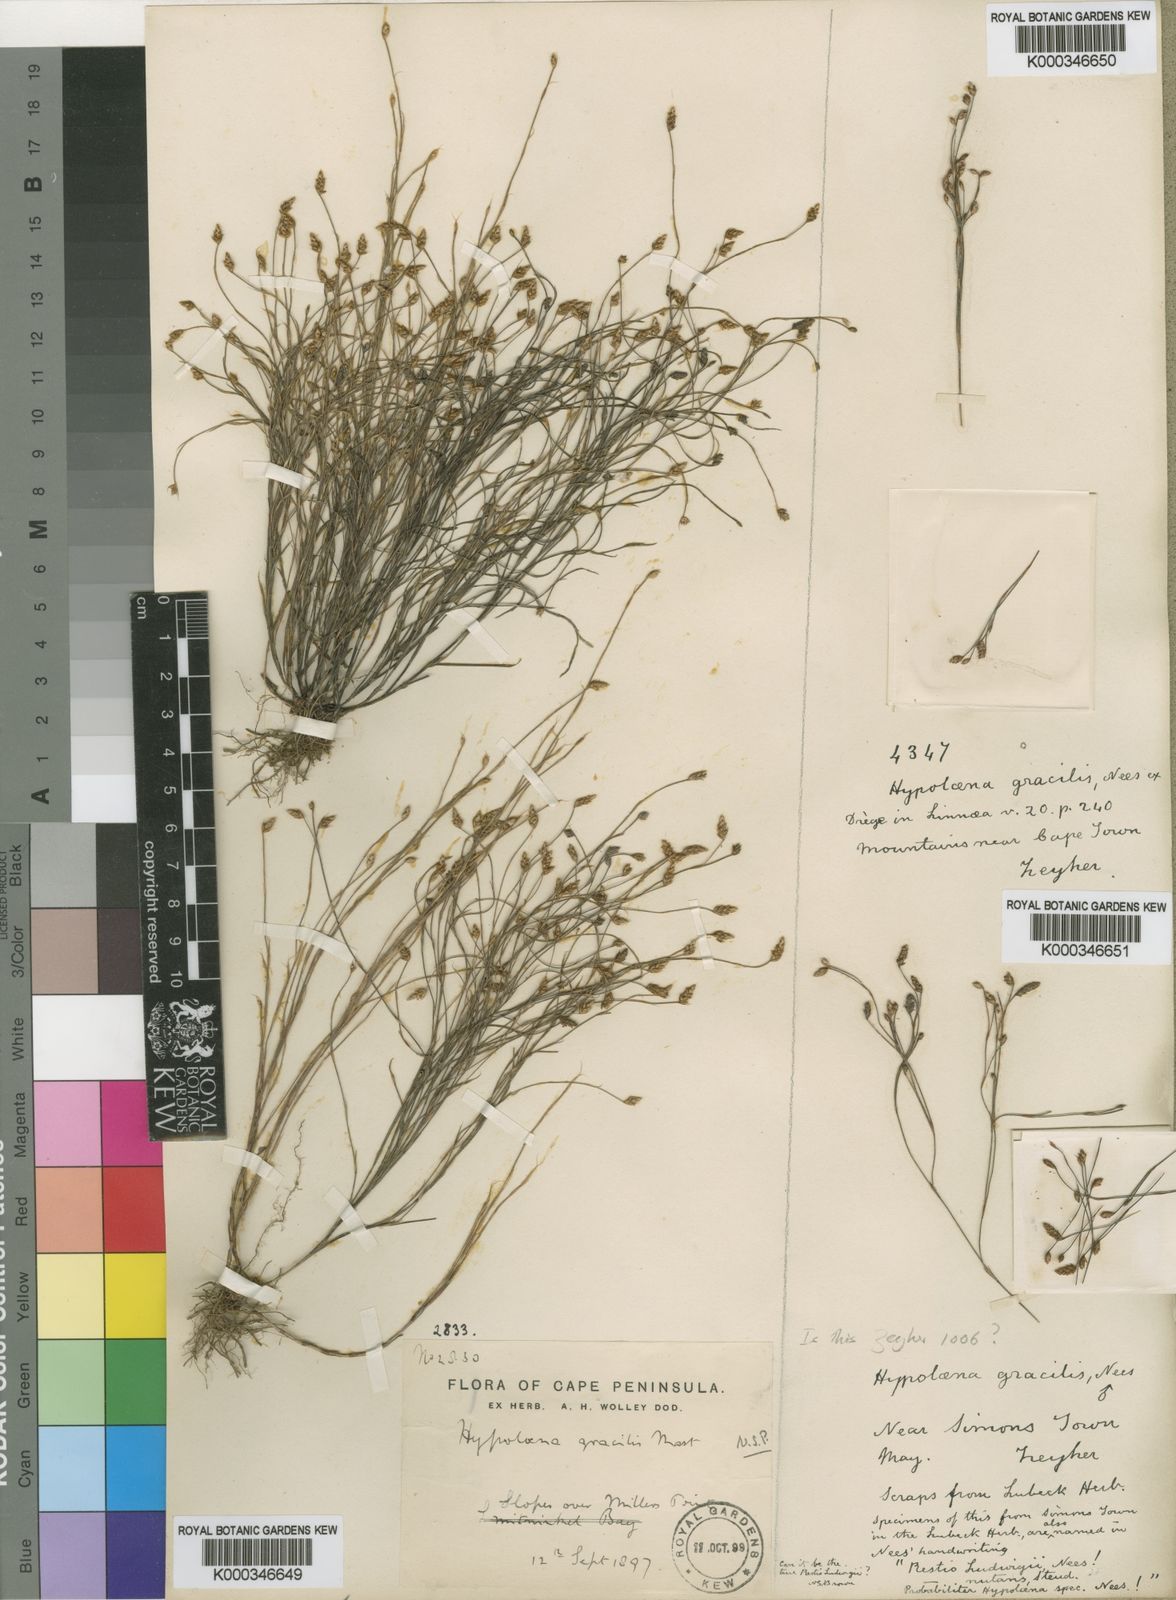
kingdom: Plantae
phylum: Tracheophyta
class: Liliopsida
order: Poales
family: Restionaceae
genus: Restio
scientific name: Restio ramosissimus
